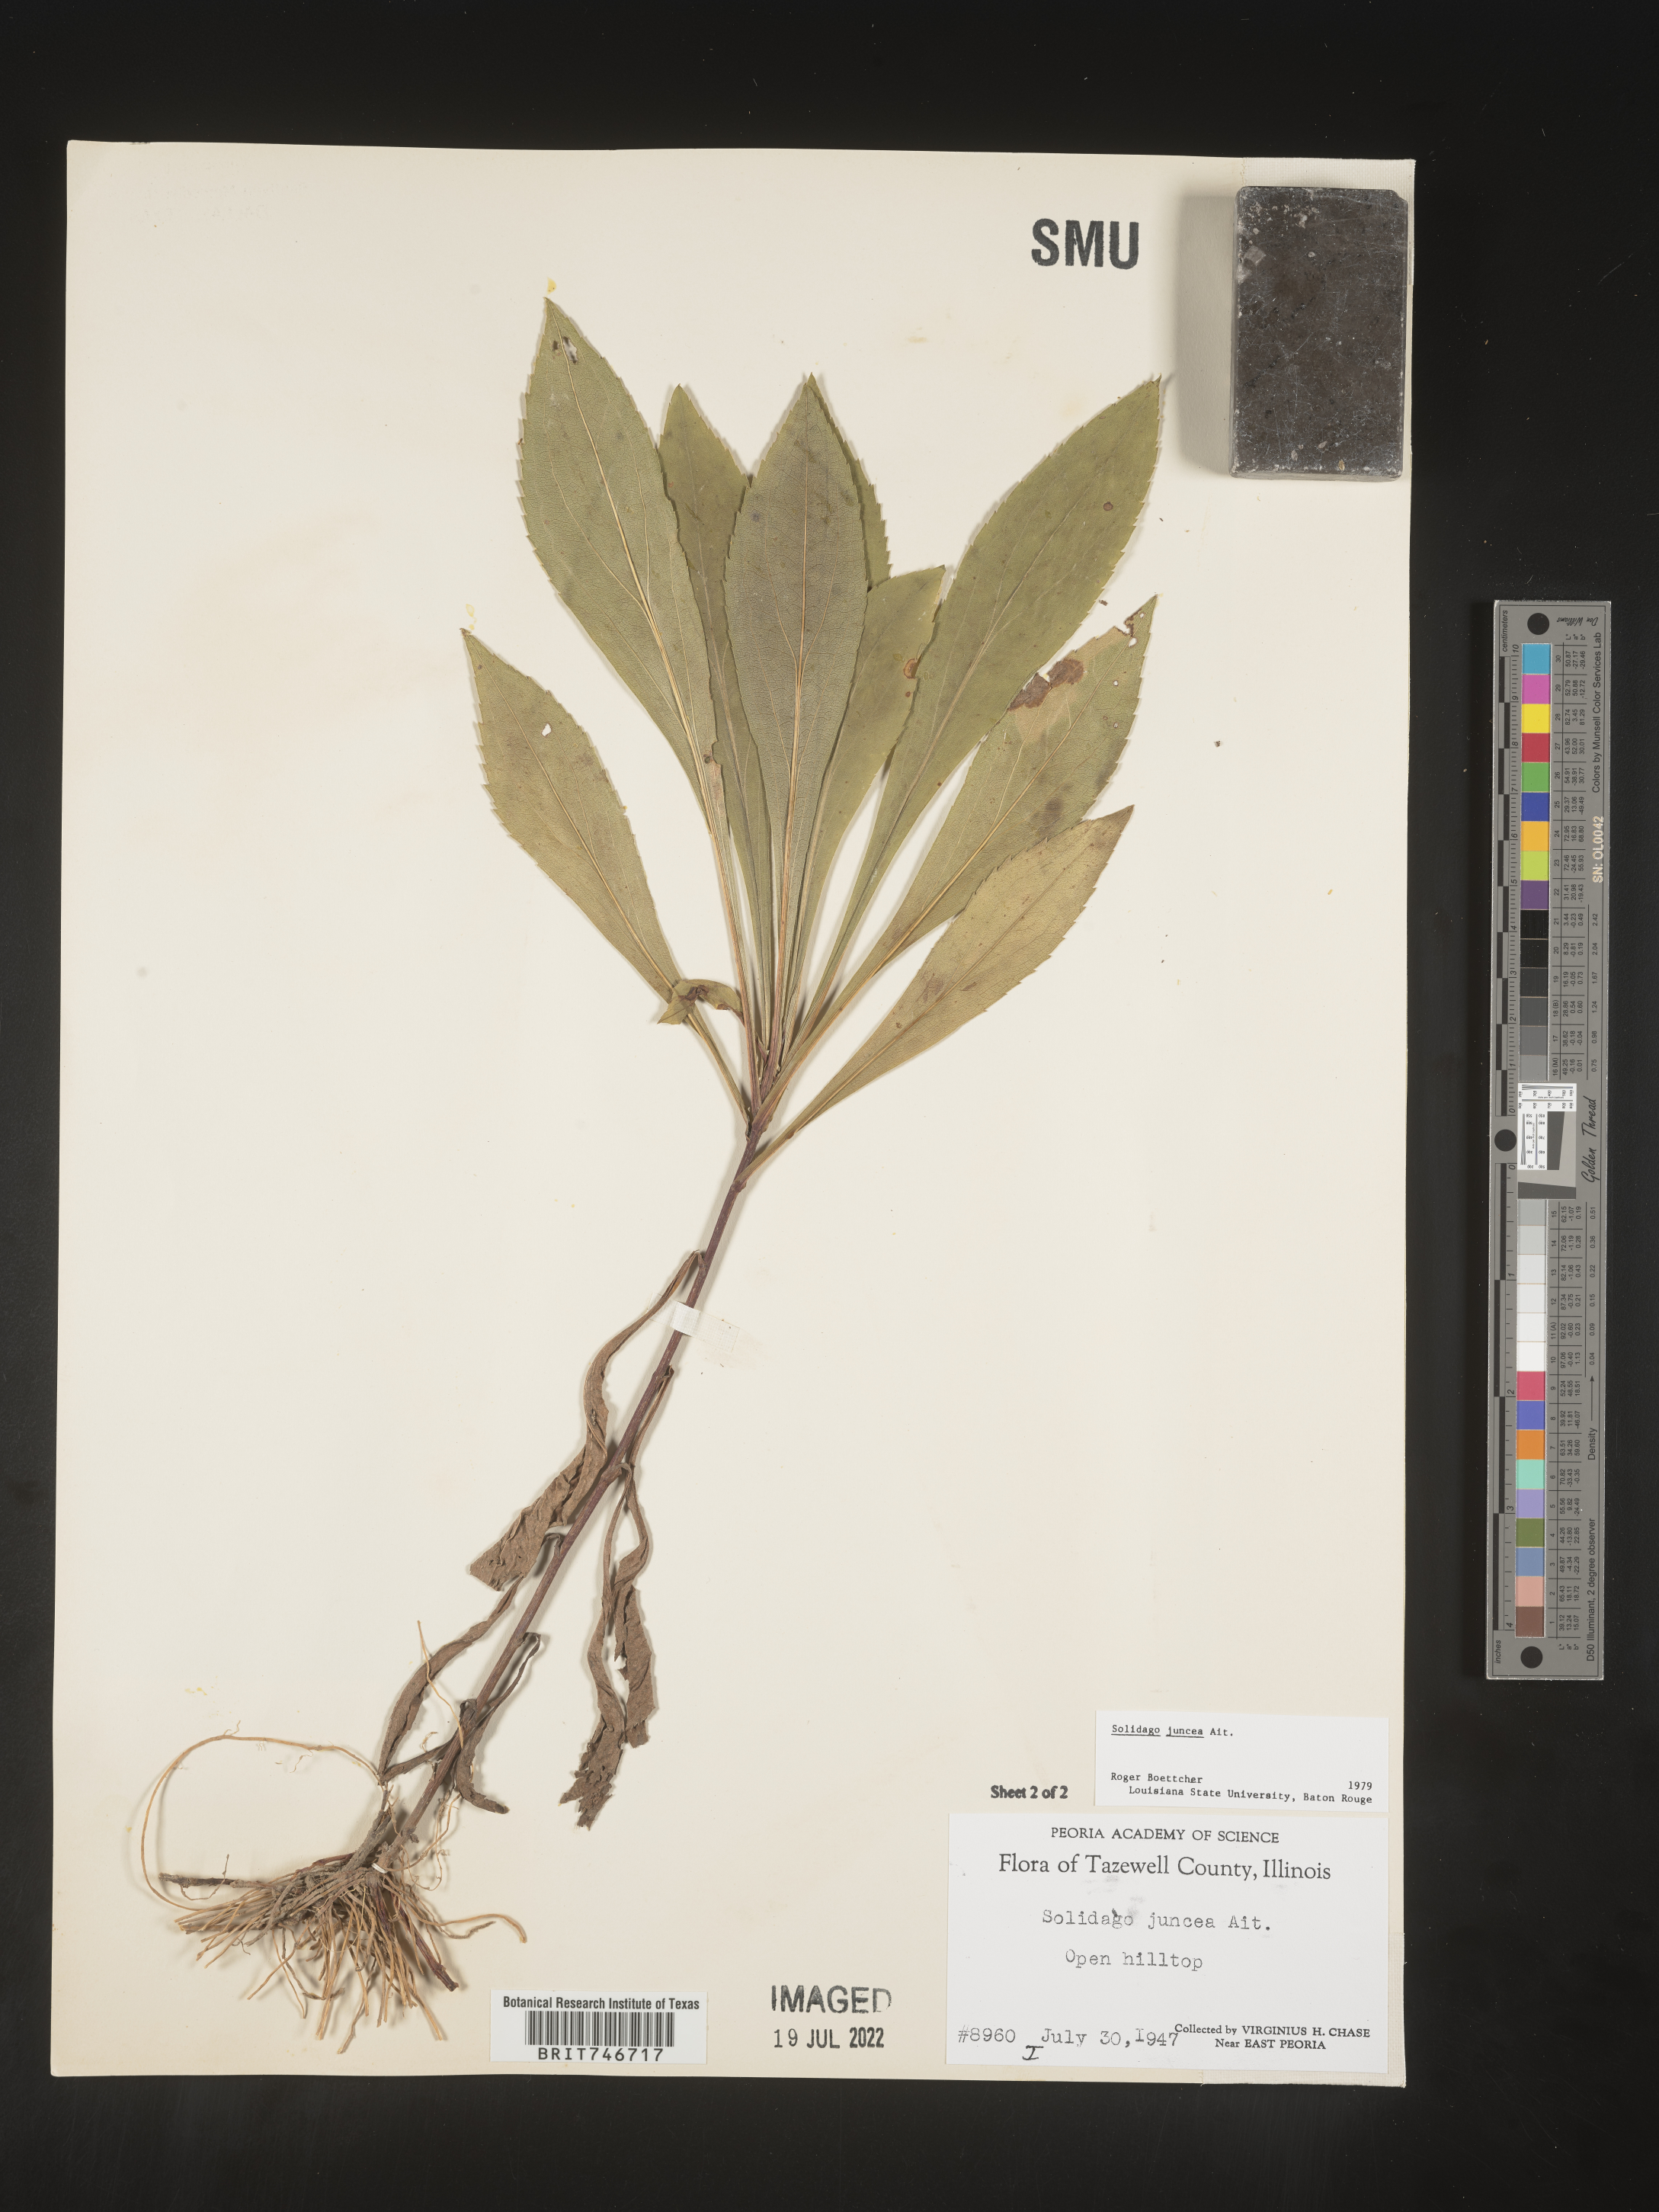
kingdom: Plantae
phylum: Tracheophyta
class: Magnoliopsida
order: Asterales
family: Asteraceae
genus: Solidago
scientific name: Solidago juncea
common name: Early goldenrod
